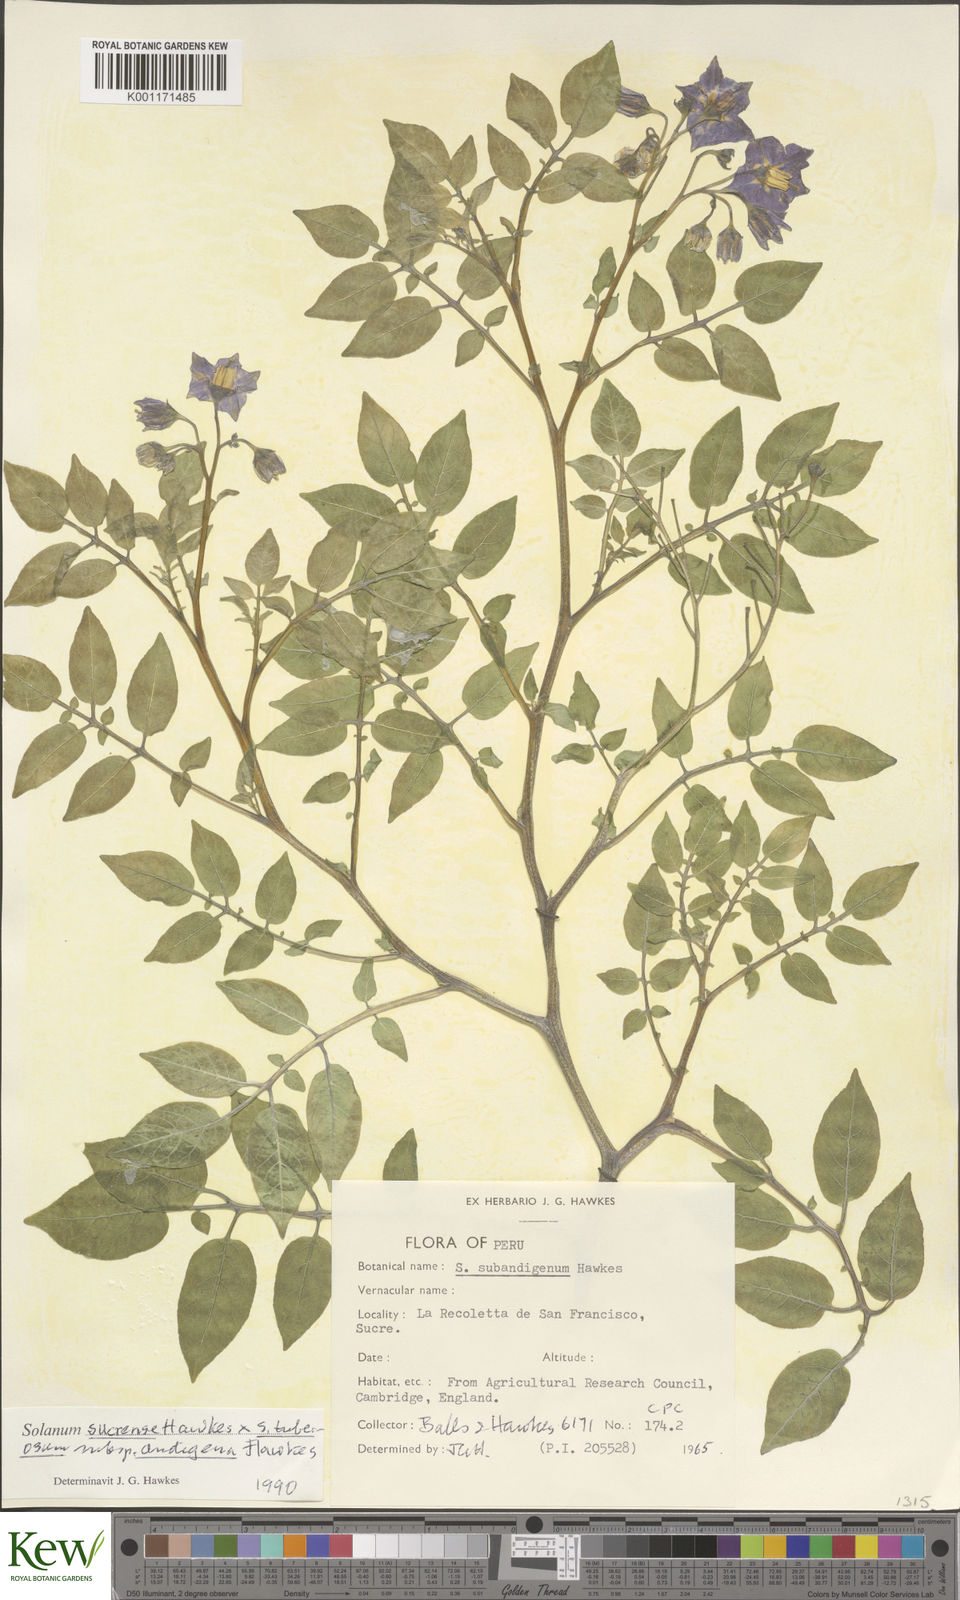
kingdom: Plantae
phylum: Tracheophyta
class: Magnoliopsida
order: Solanales
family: Solanaceae
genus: Solanum
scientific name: Solanum tuberosum
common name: Potato
